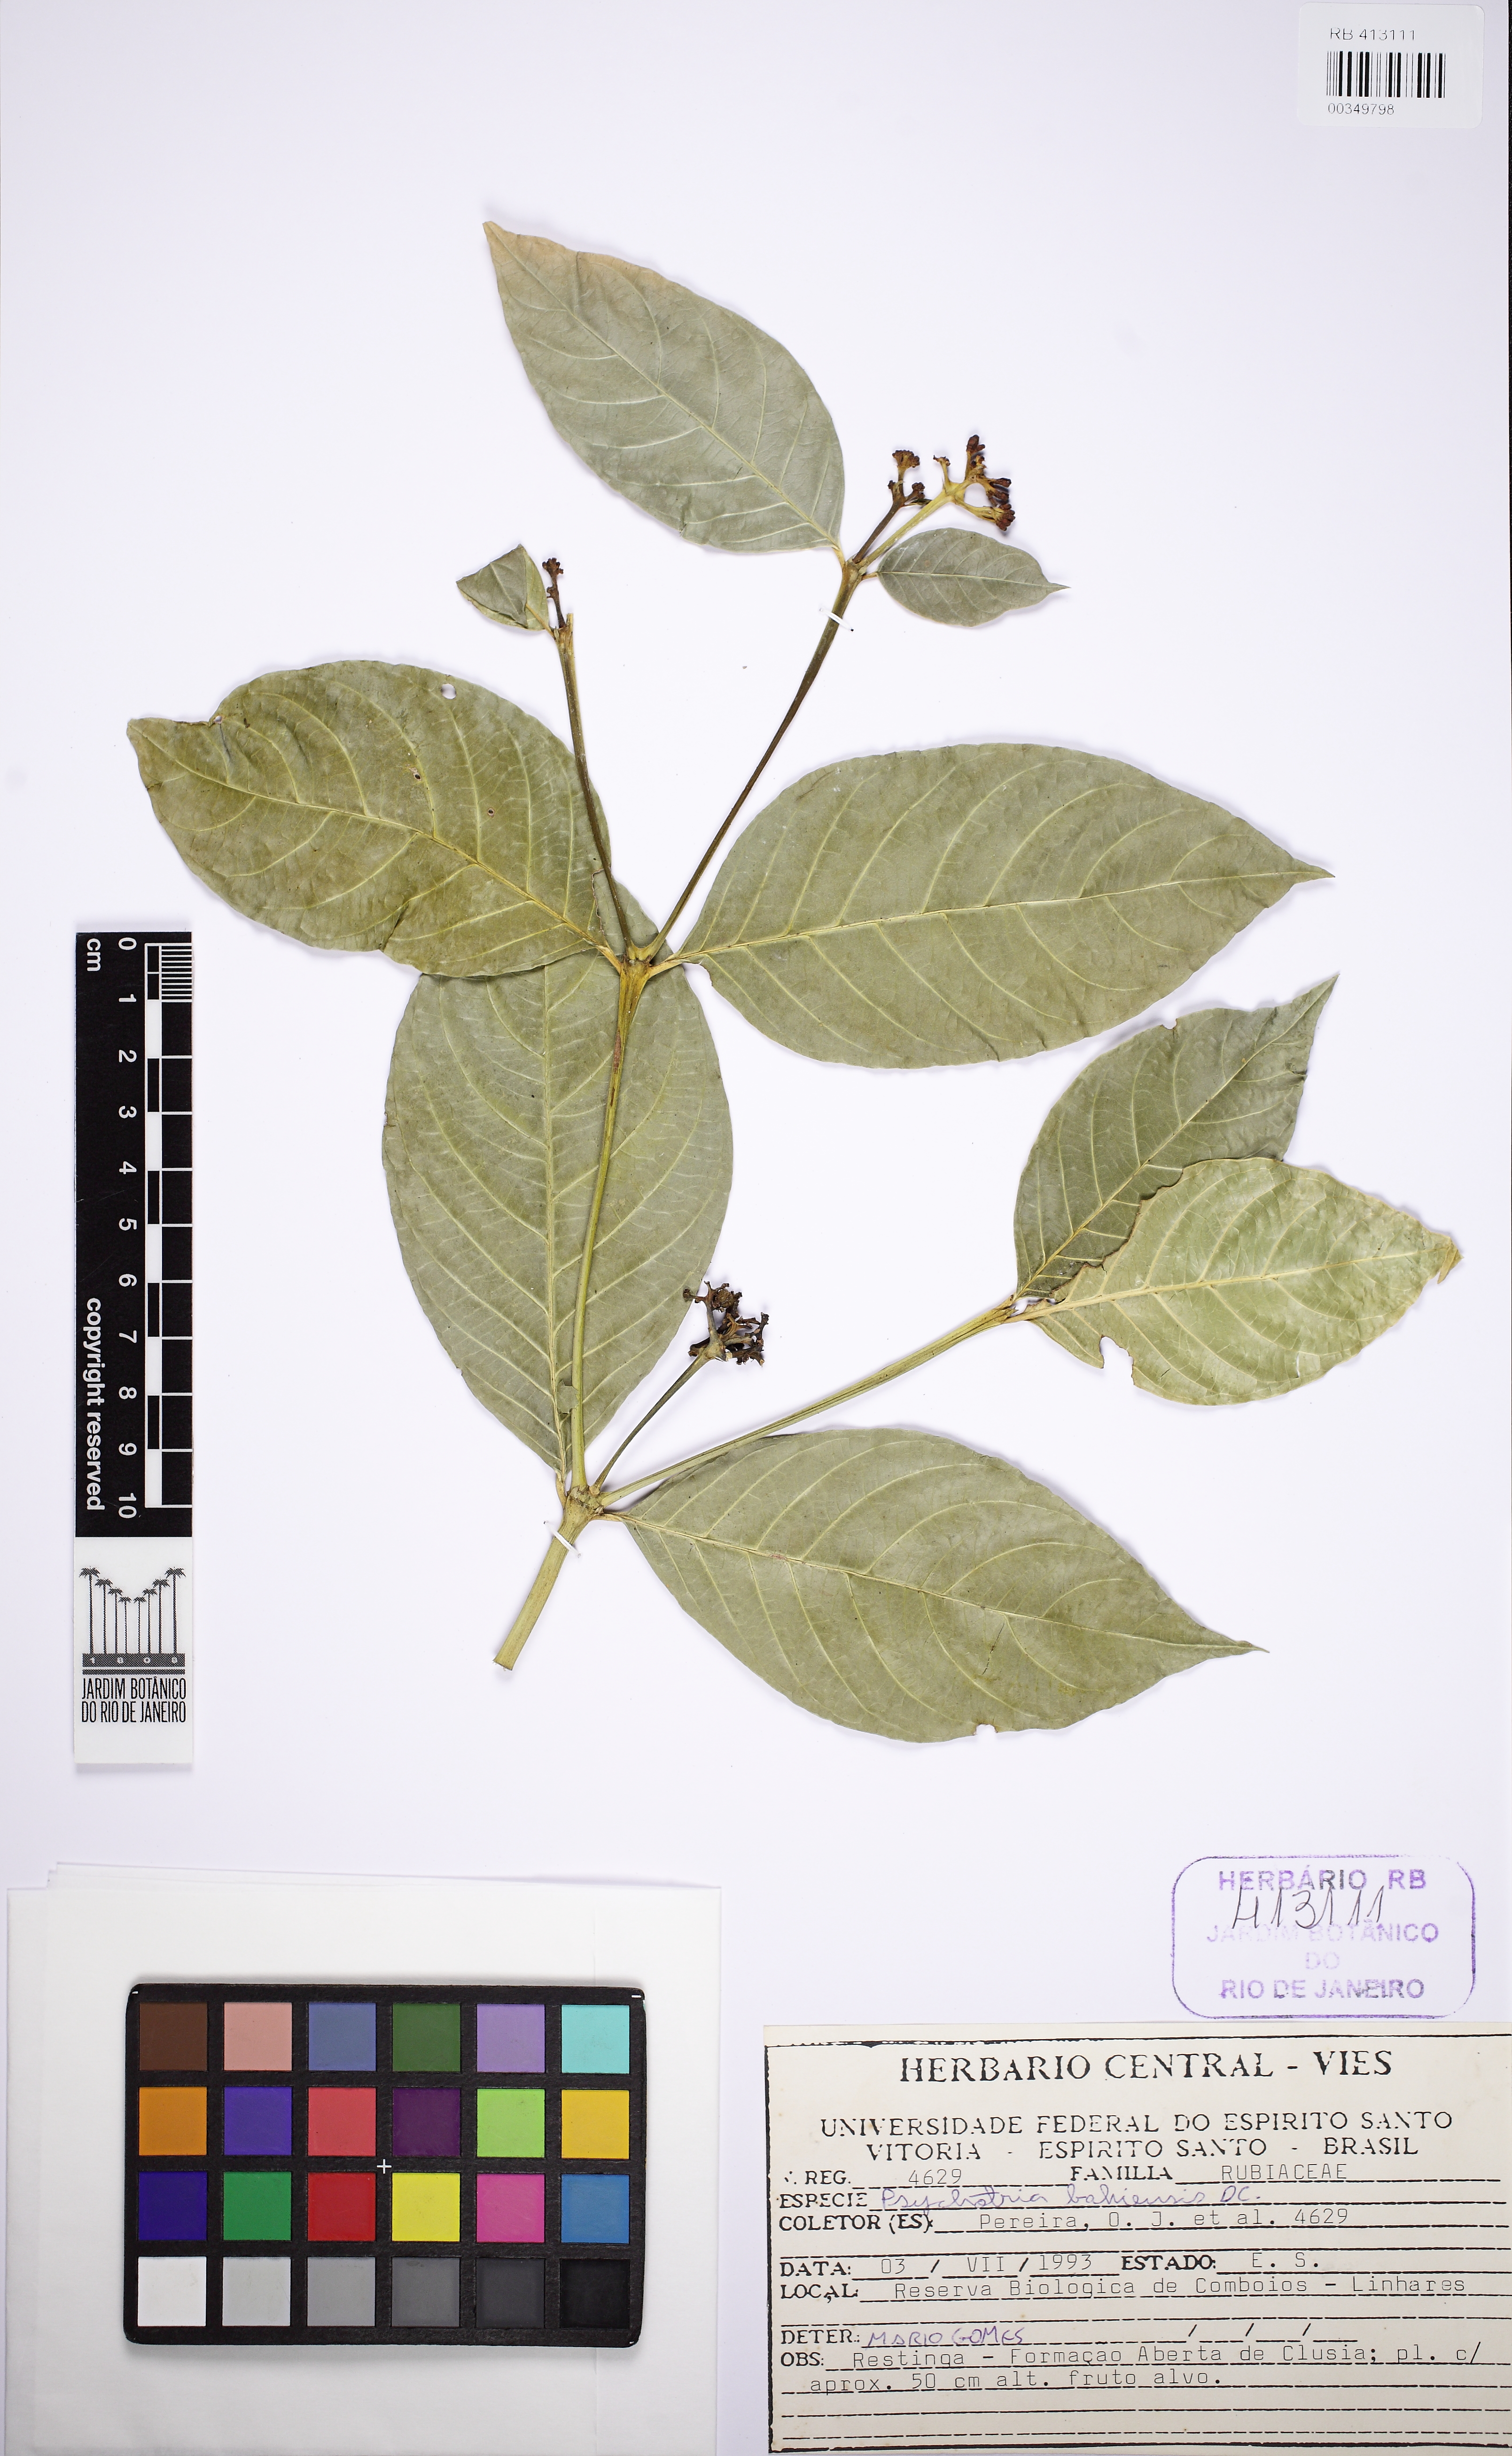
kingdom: Plantae
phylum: Tracheophyta
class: Magnoliopsida
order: Gentianales
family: Rubiaceae
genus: Psychotria
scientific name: Psychotria bahiensis
